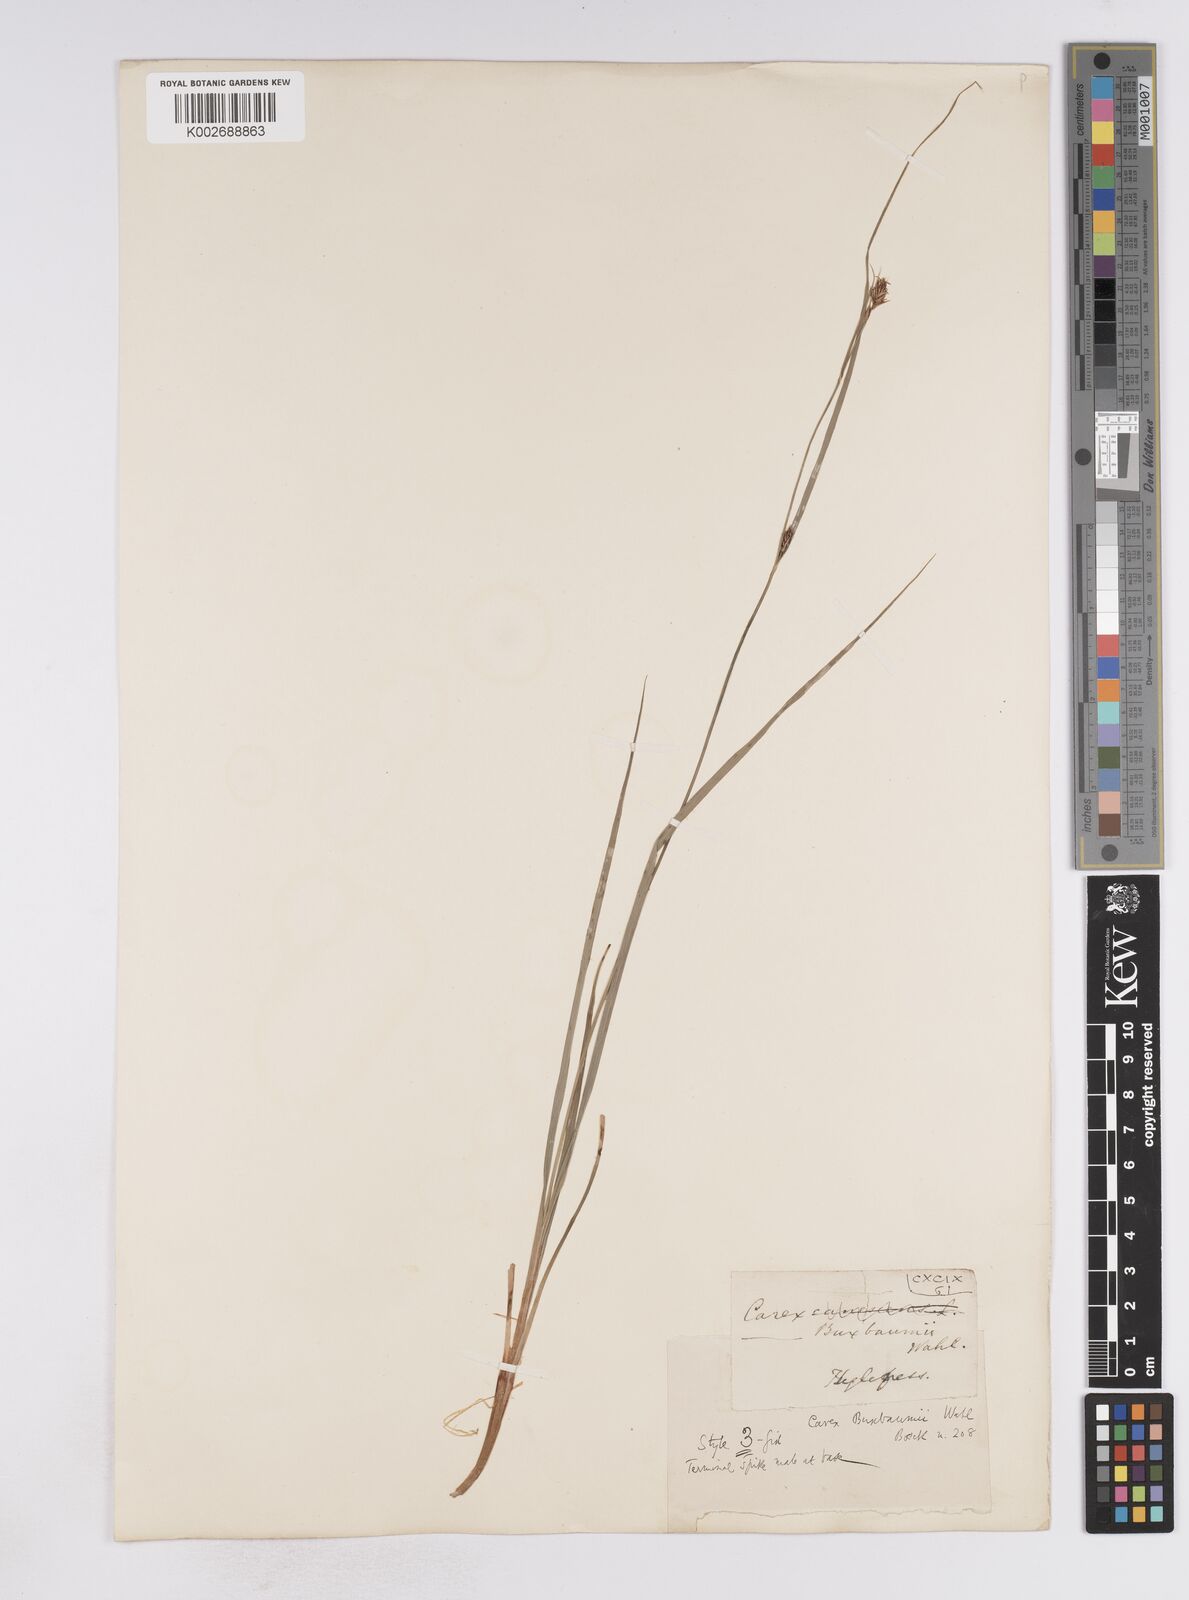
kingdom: Plantae
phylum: Tracheophyta
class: Liliopsida
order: Poales
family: Cyperaceae
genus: Carex
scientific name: Carex buxbaumii
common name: Club sedge
